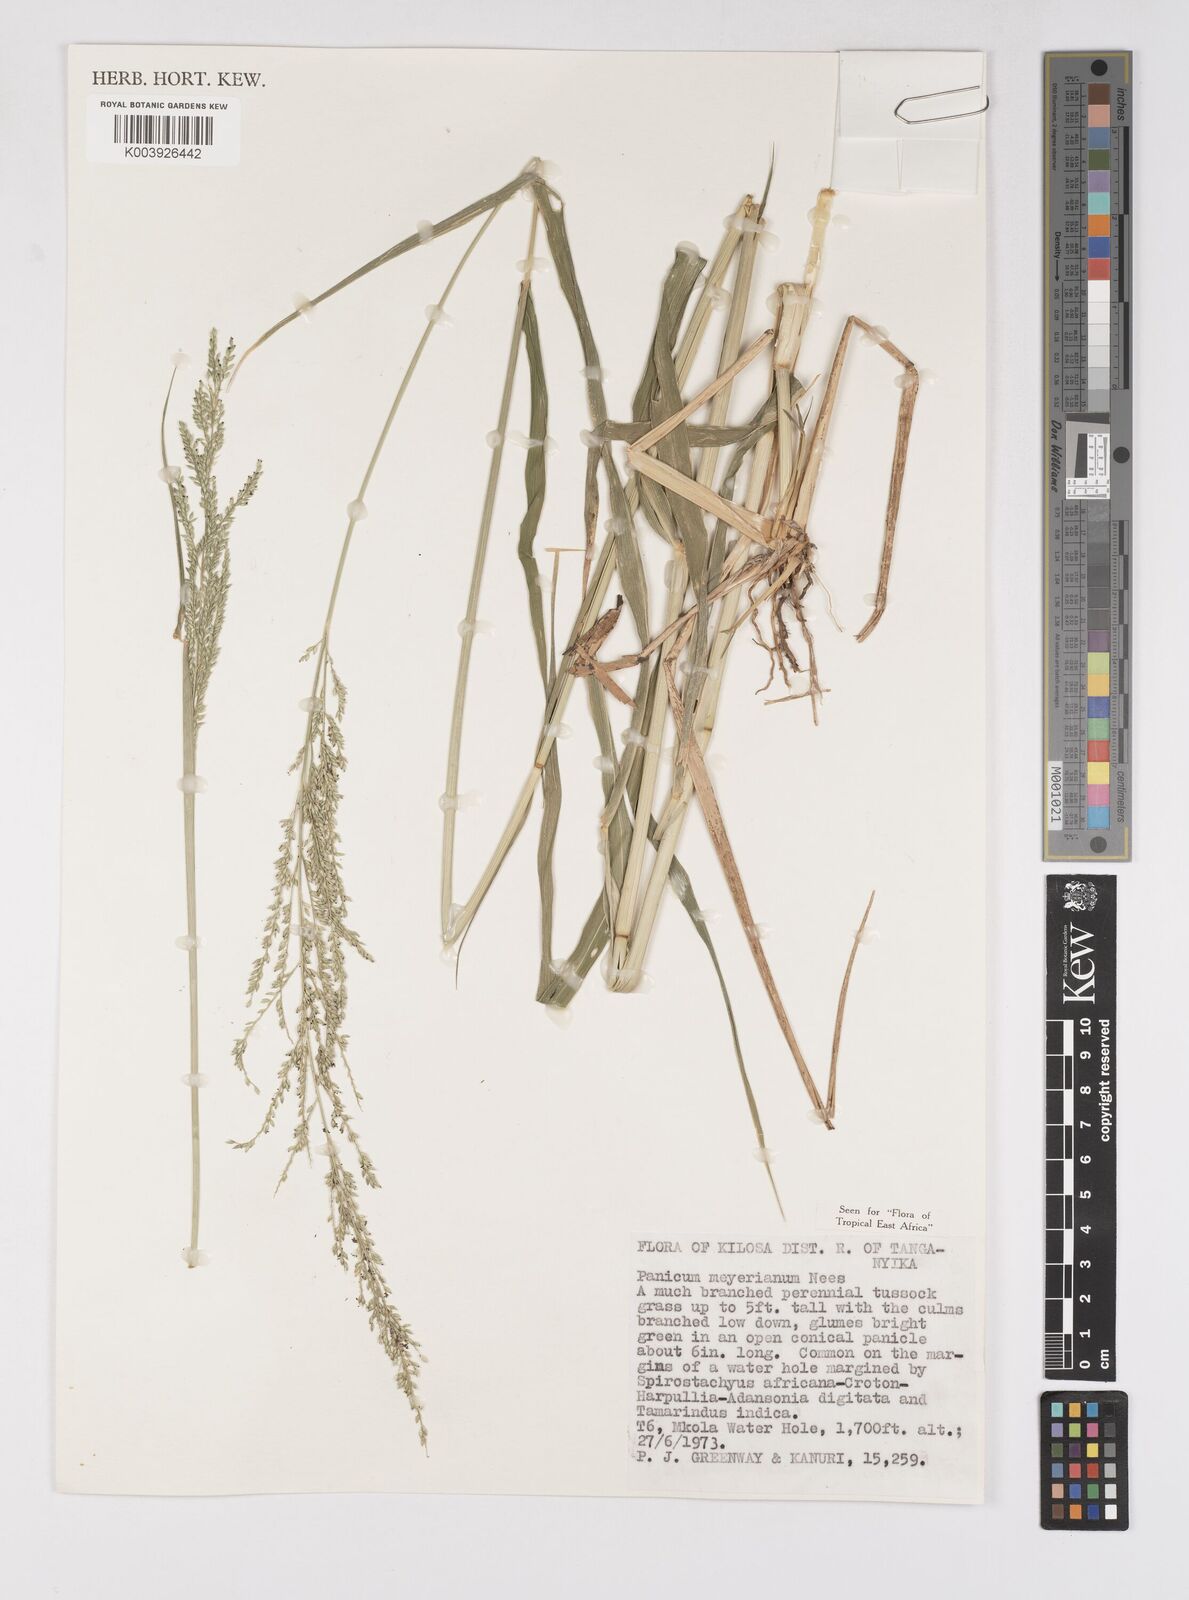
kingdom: Plantae
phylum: Tracheophyta
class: Liliopsida
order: Poales
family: Poaceae
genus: Eriochloa
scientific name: Eriochloa meyeriana
